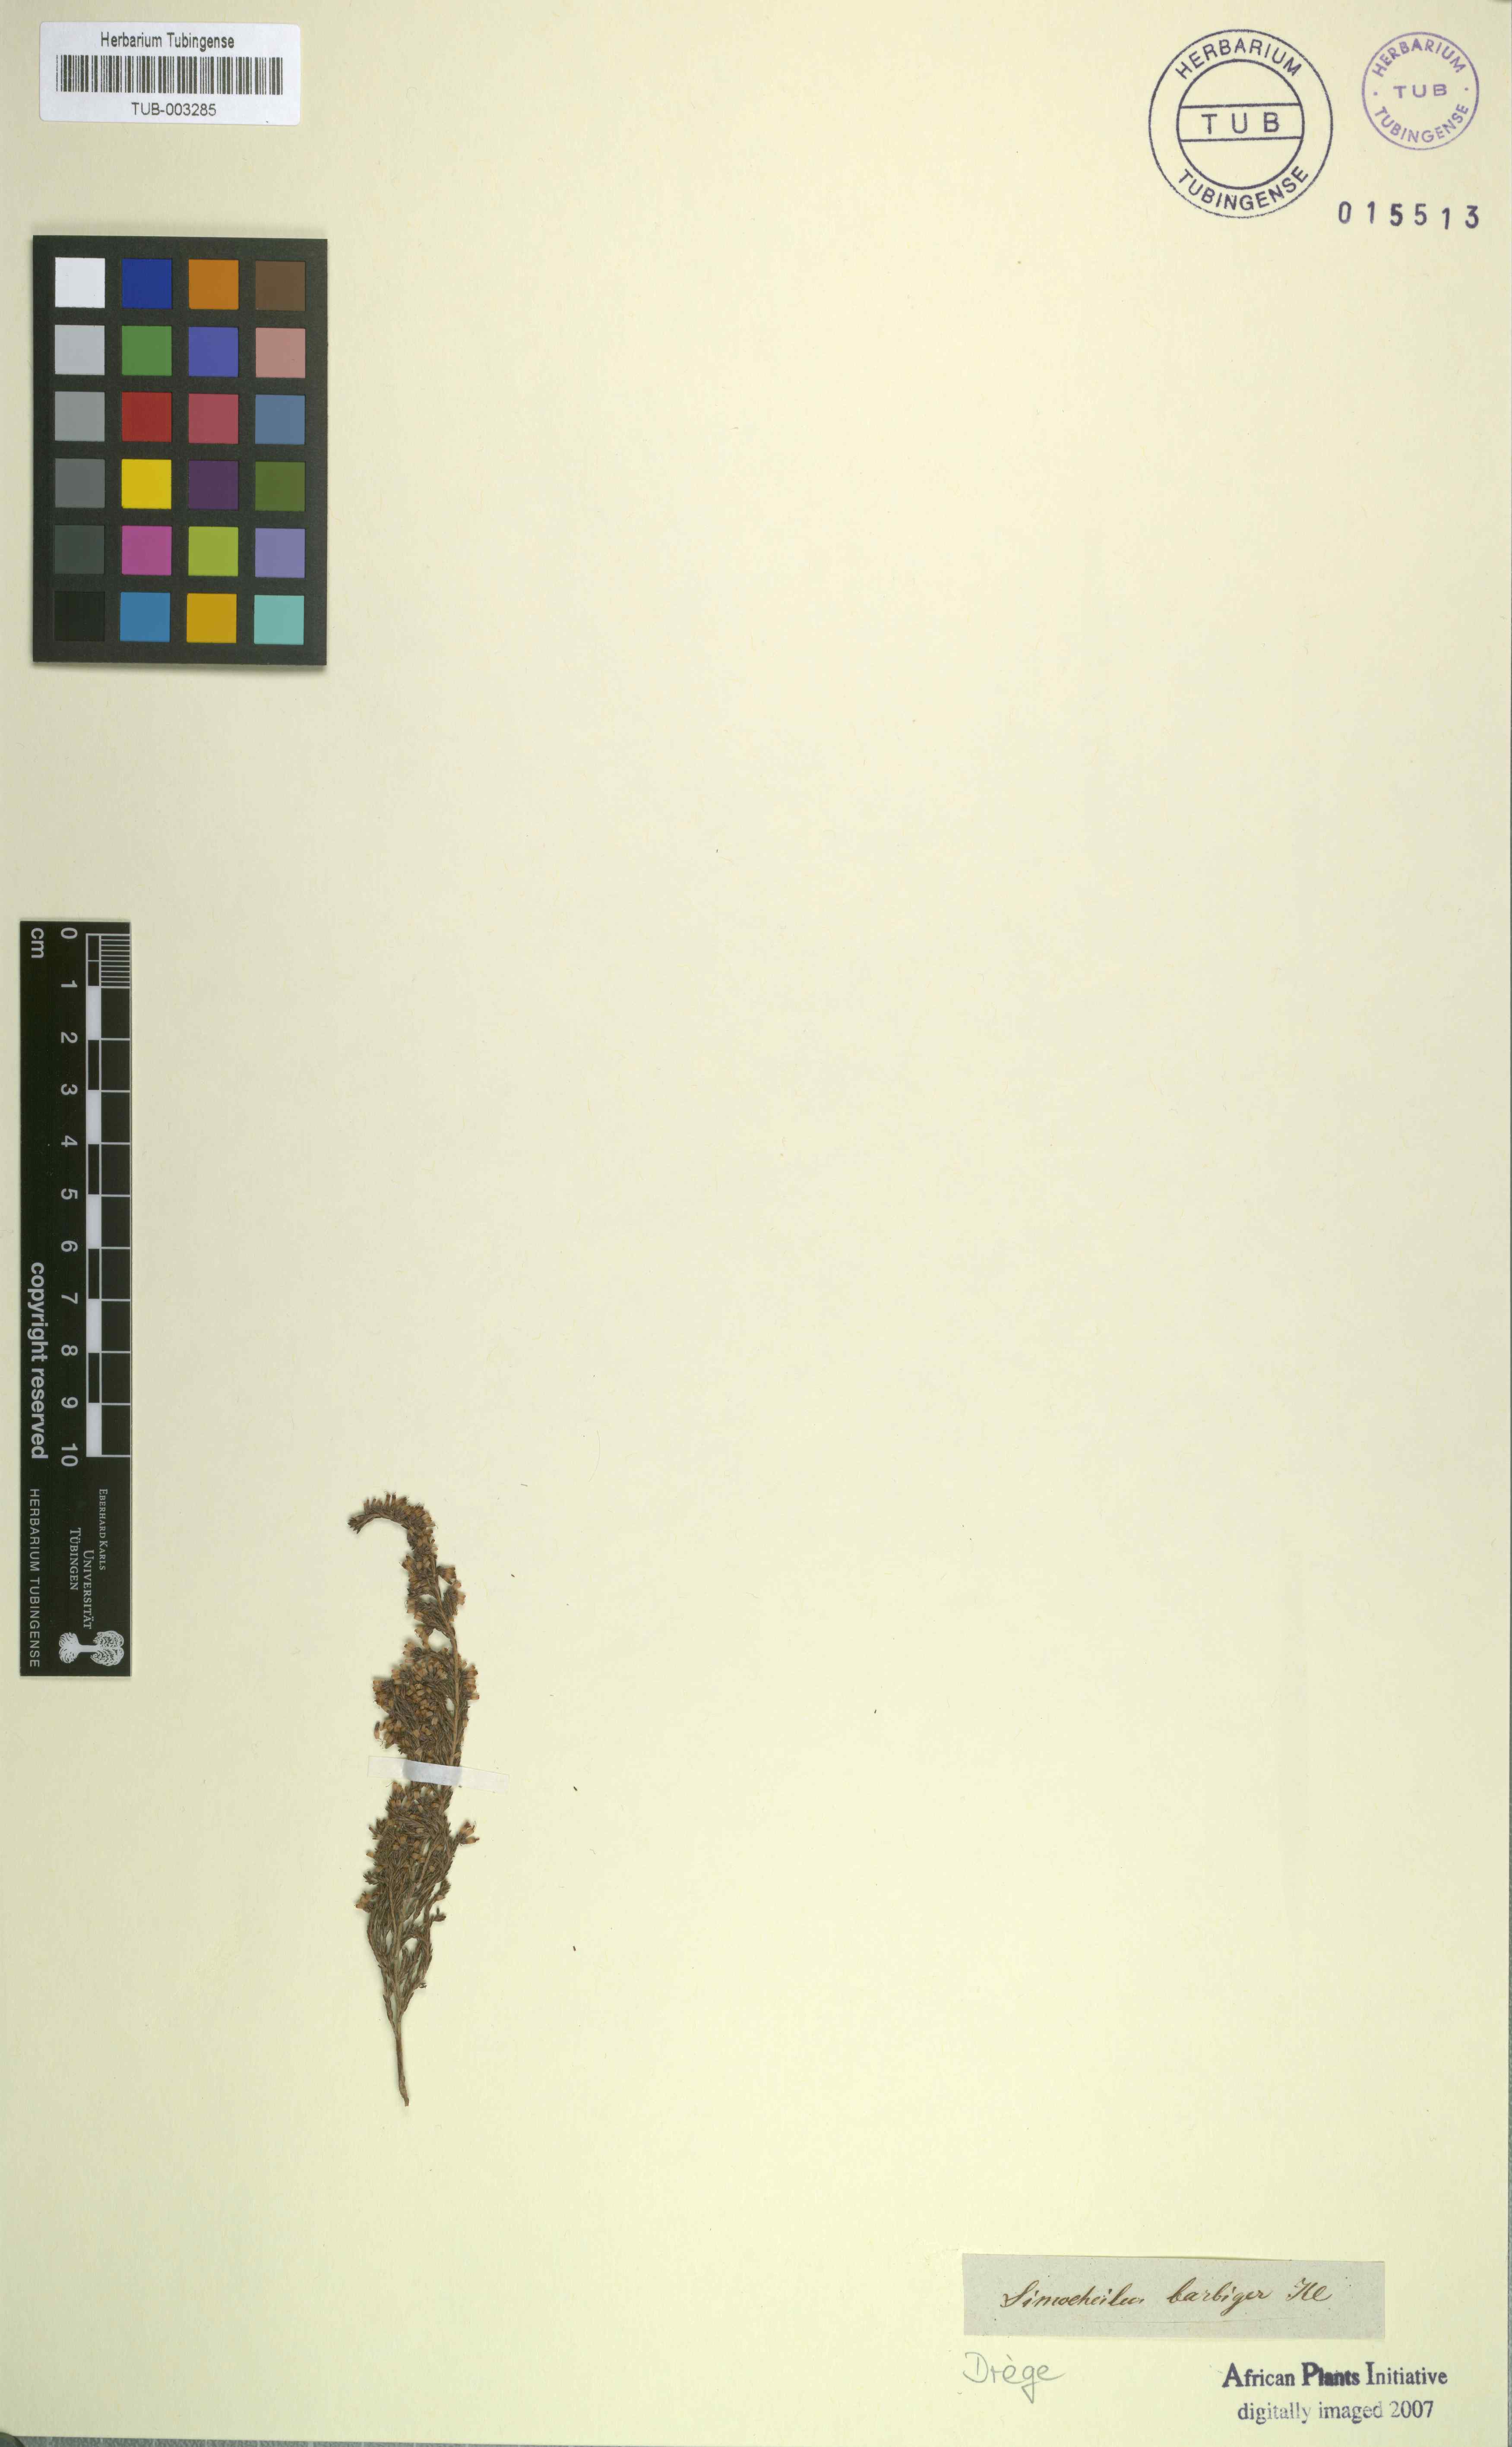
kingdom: Plantae
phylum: Tracheophyta
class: Magnoliopsida
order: Ericales
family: Ericaceae
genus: Erica
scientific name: Erica uberiflora
